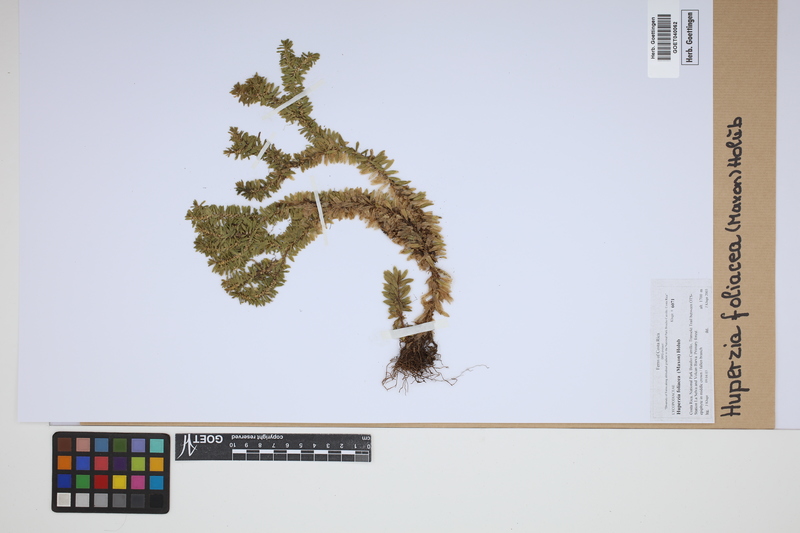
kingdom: Plantae
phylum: Tracheophyta
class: Lycopodiopsida
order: Lycopodiales
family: Lycopodiaceae
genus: Phlegmariurus
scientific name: Phlegmariurus foliaceus
